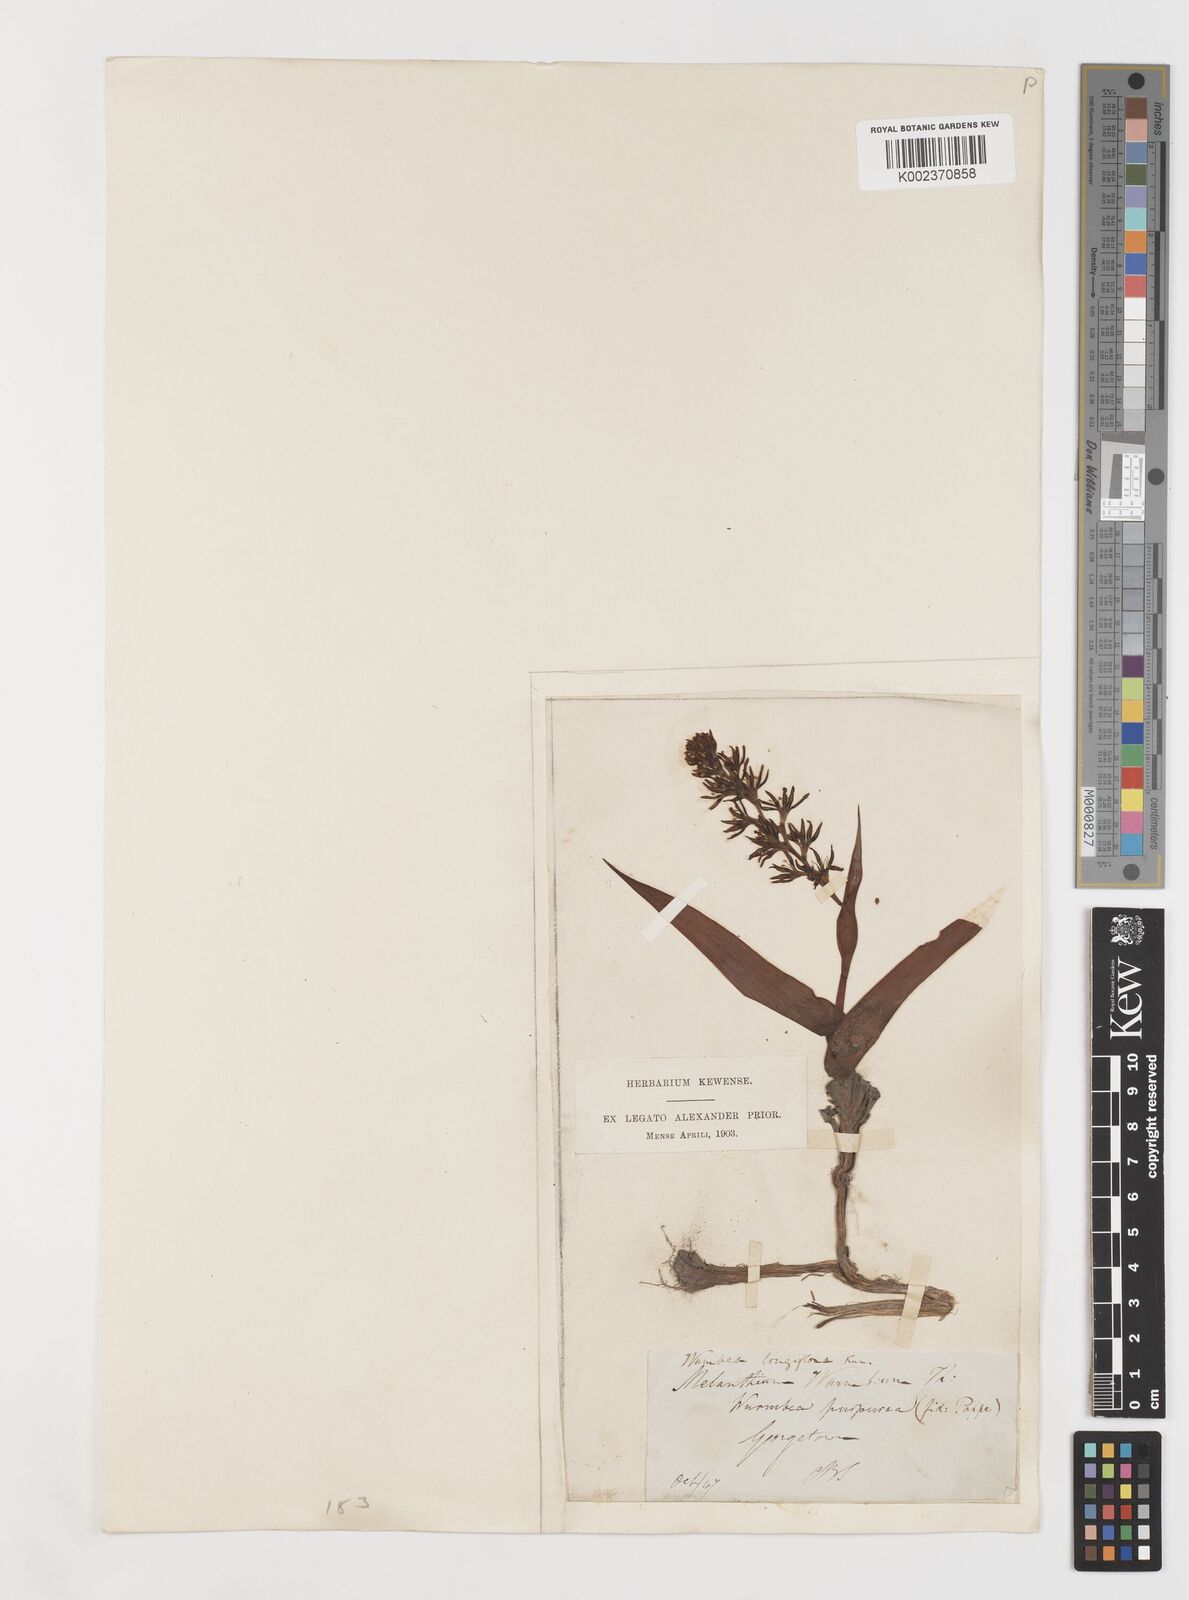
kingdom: Plantae
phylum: Tracheophyta
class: Liliopsida
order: Liliales
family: Colchicaceae
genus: Wurmbea
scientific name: Wurmbea capensis
